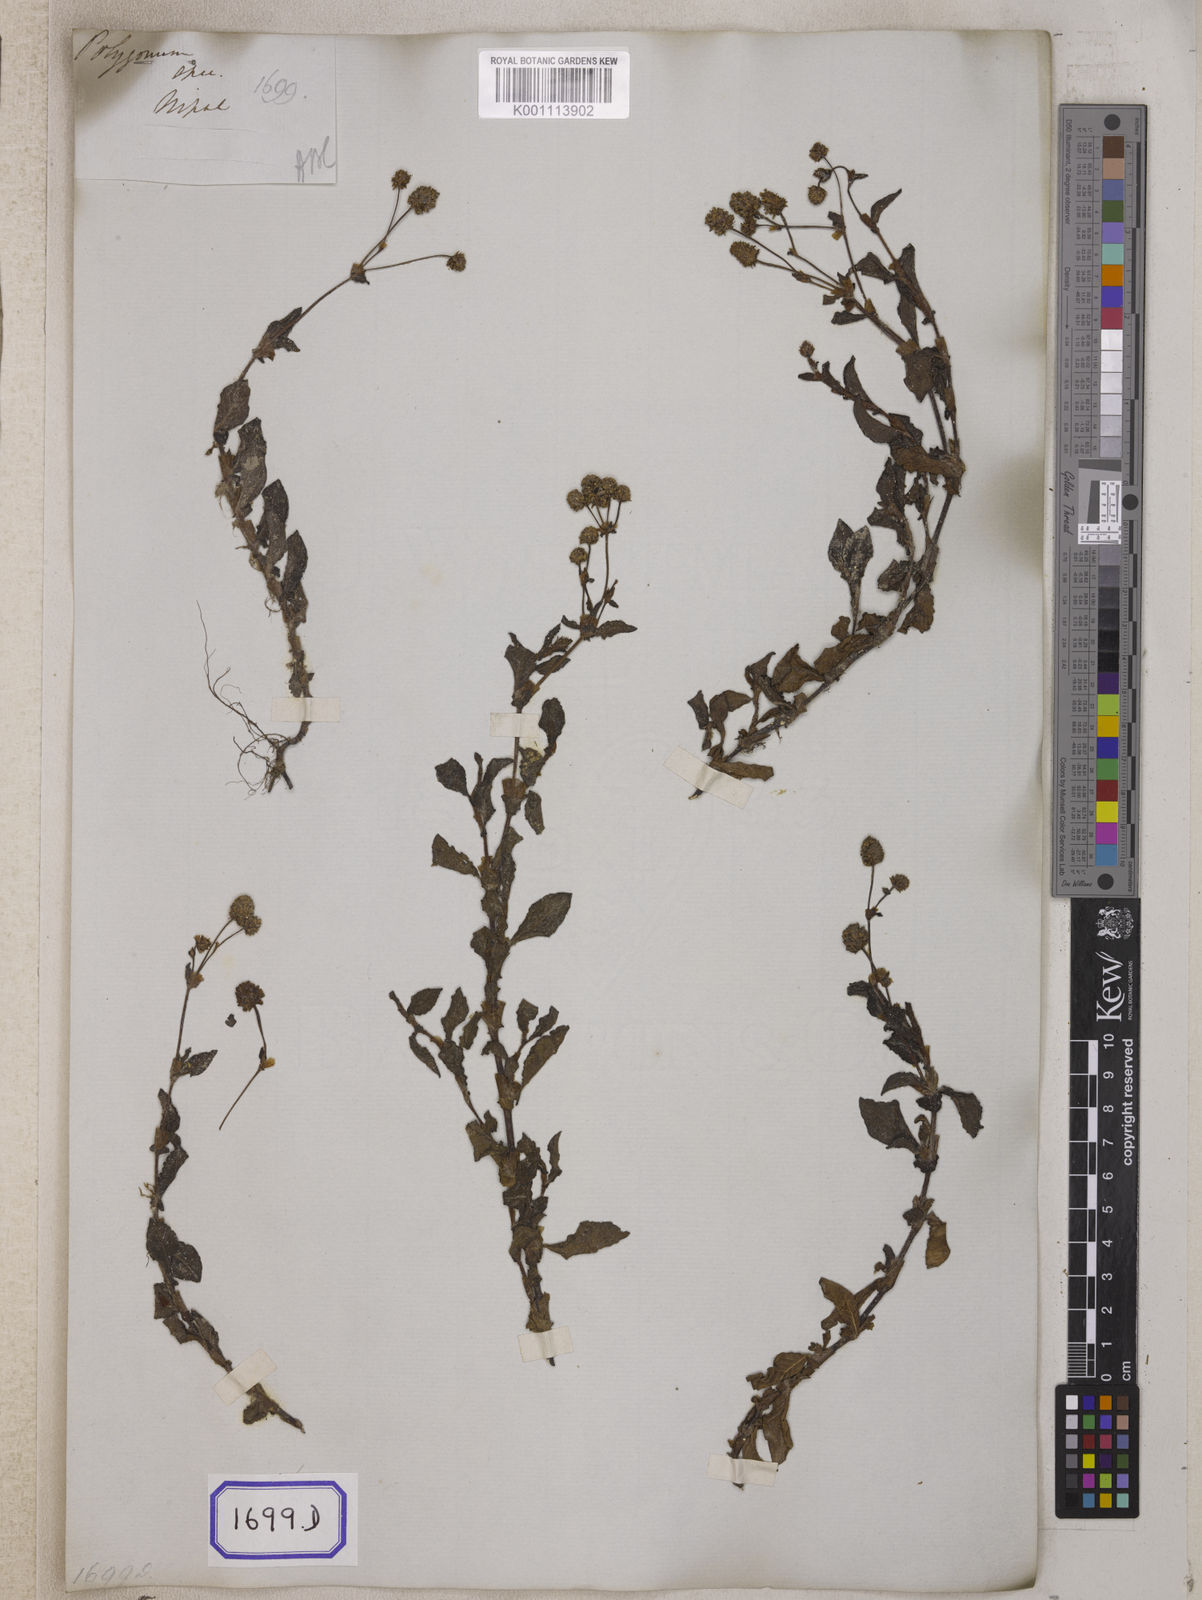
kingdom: Plantae
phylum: Tracheophyta
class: Magnoliopsida
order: Caryophyllales
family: Polygonaceae
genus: Polygonum
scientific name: Polygonum
